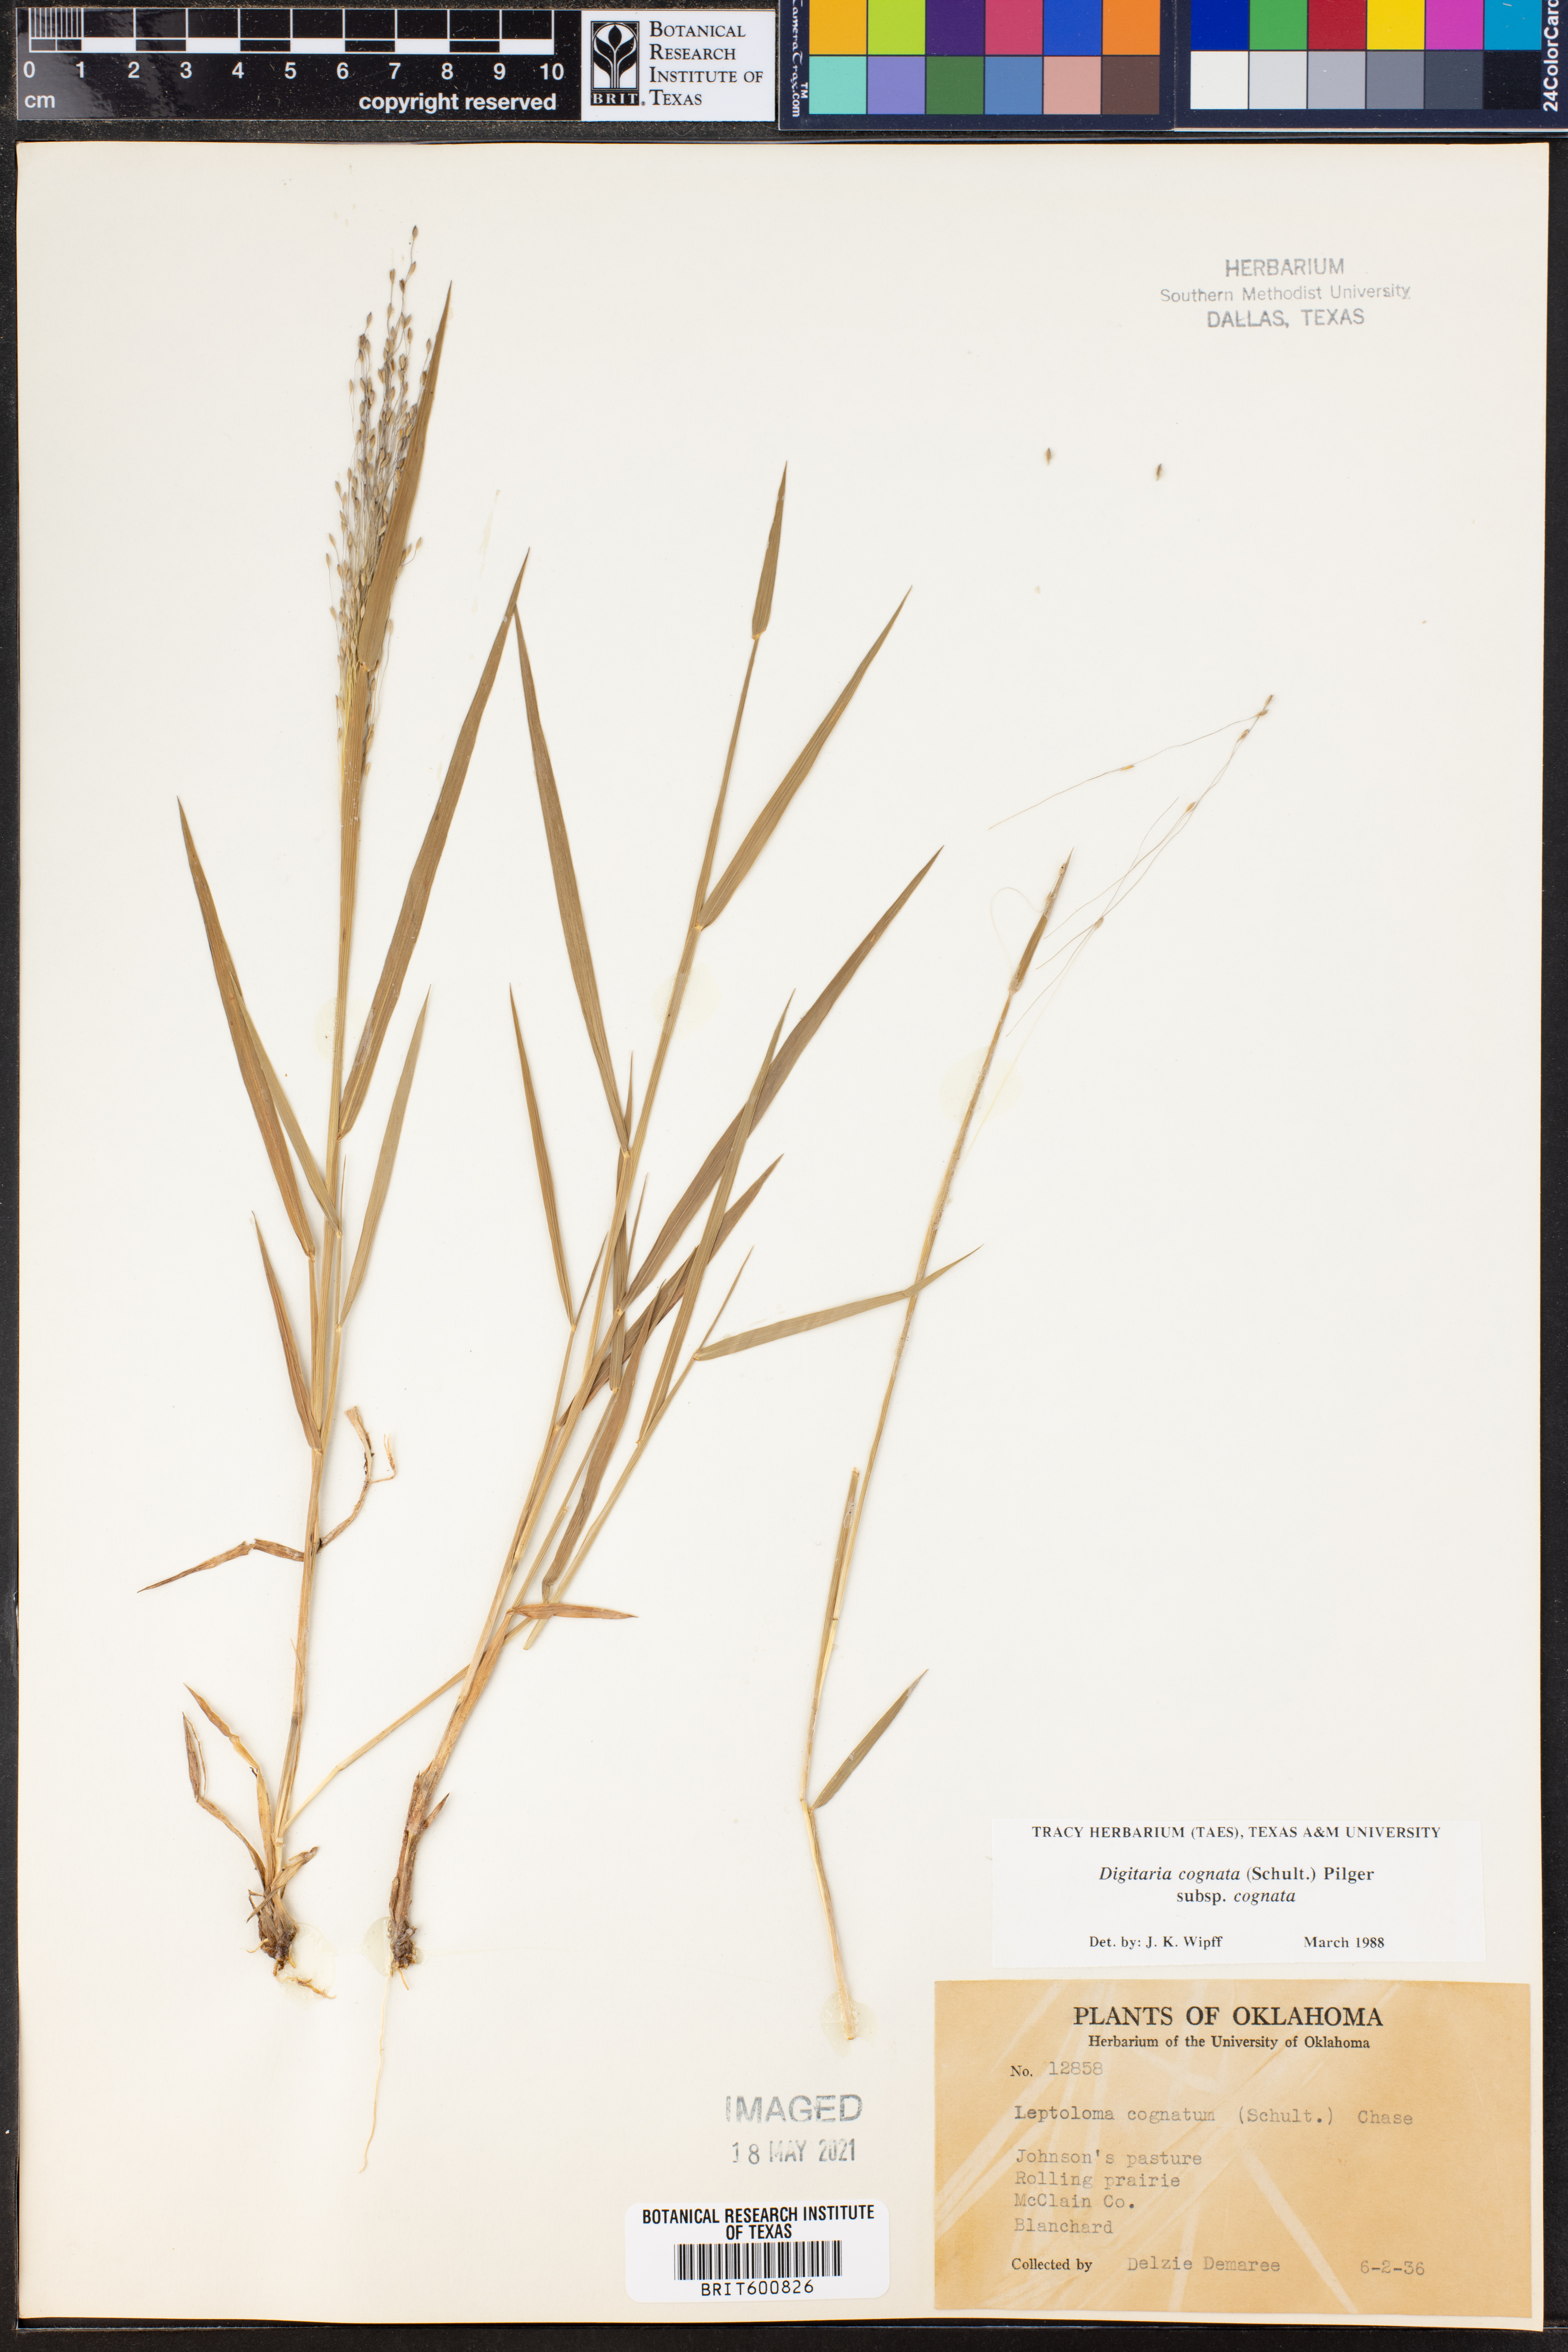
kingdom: Plantae
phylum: Tracheophyta
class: Liliopsida
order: Poales
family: Poaceae
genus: Digitaria
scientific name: Digitaria cognata
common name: Fall witchgrass
